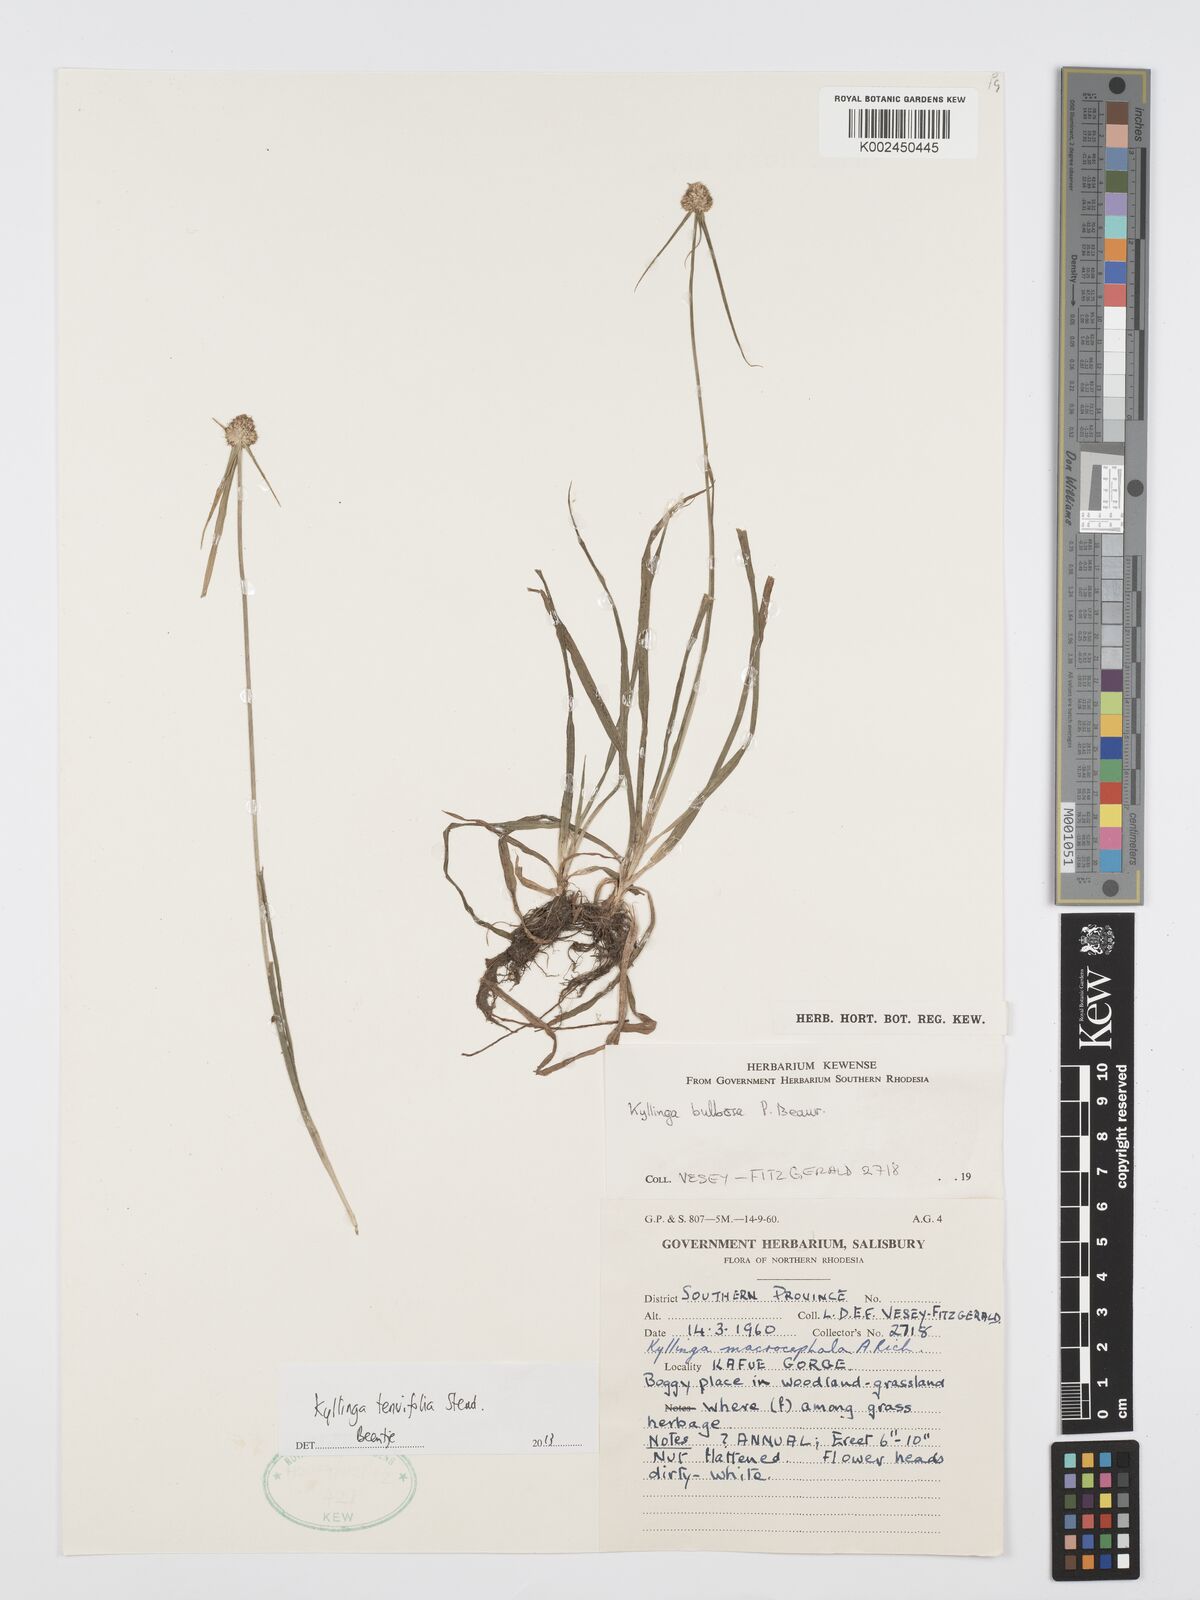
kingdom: Plantae
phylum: Tracheophyta
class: Liliopsida
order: Poales
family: Cyperaceae
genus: Cyperus
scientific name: Cyperus tenuifolius
